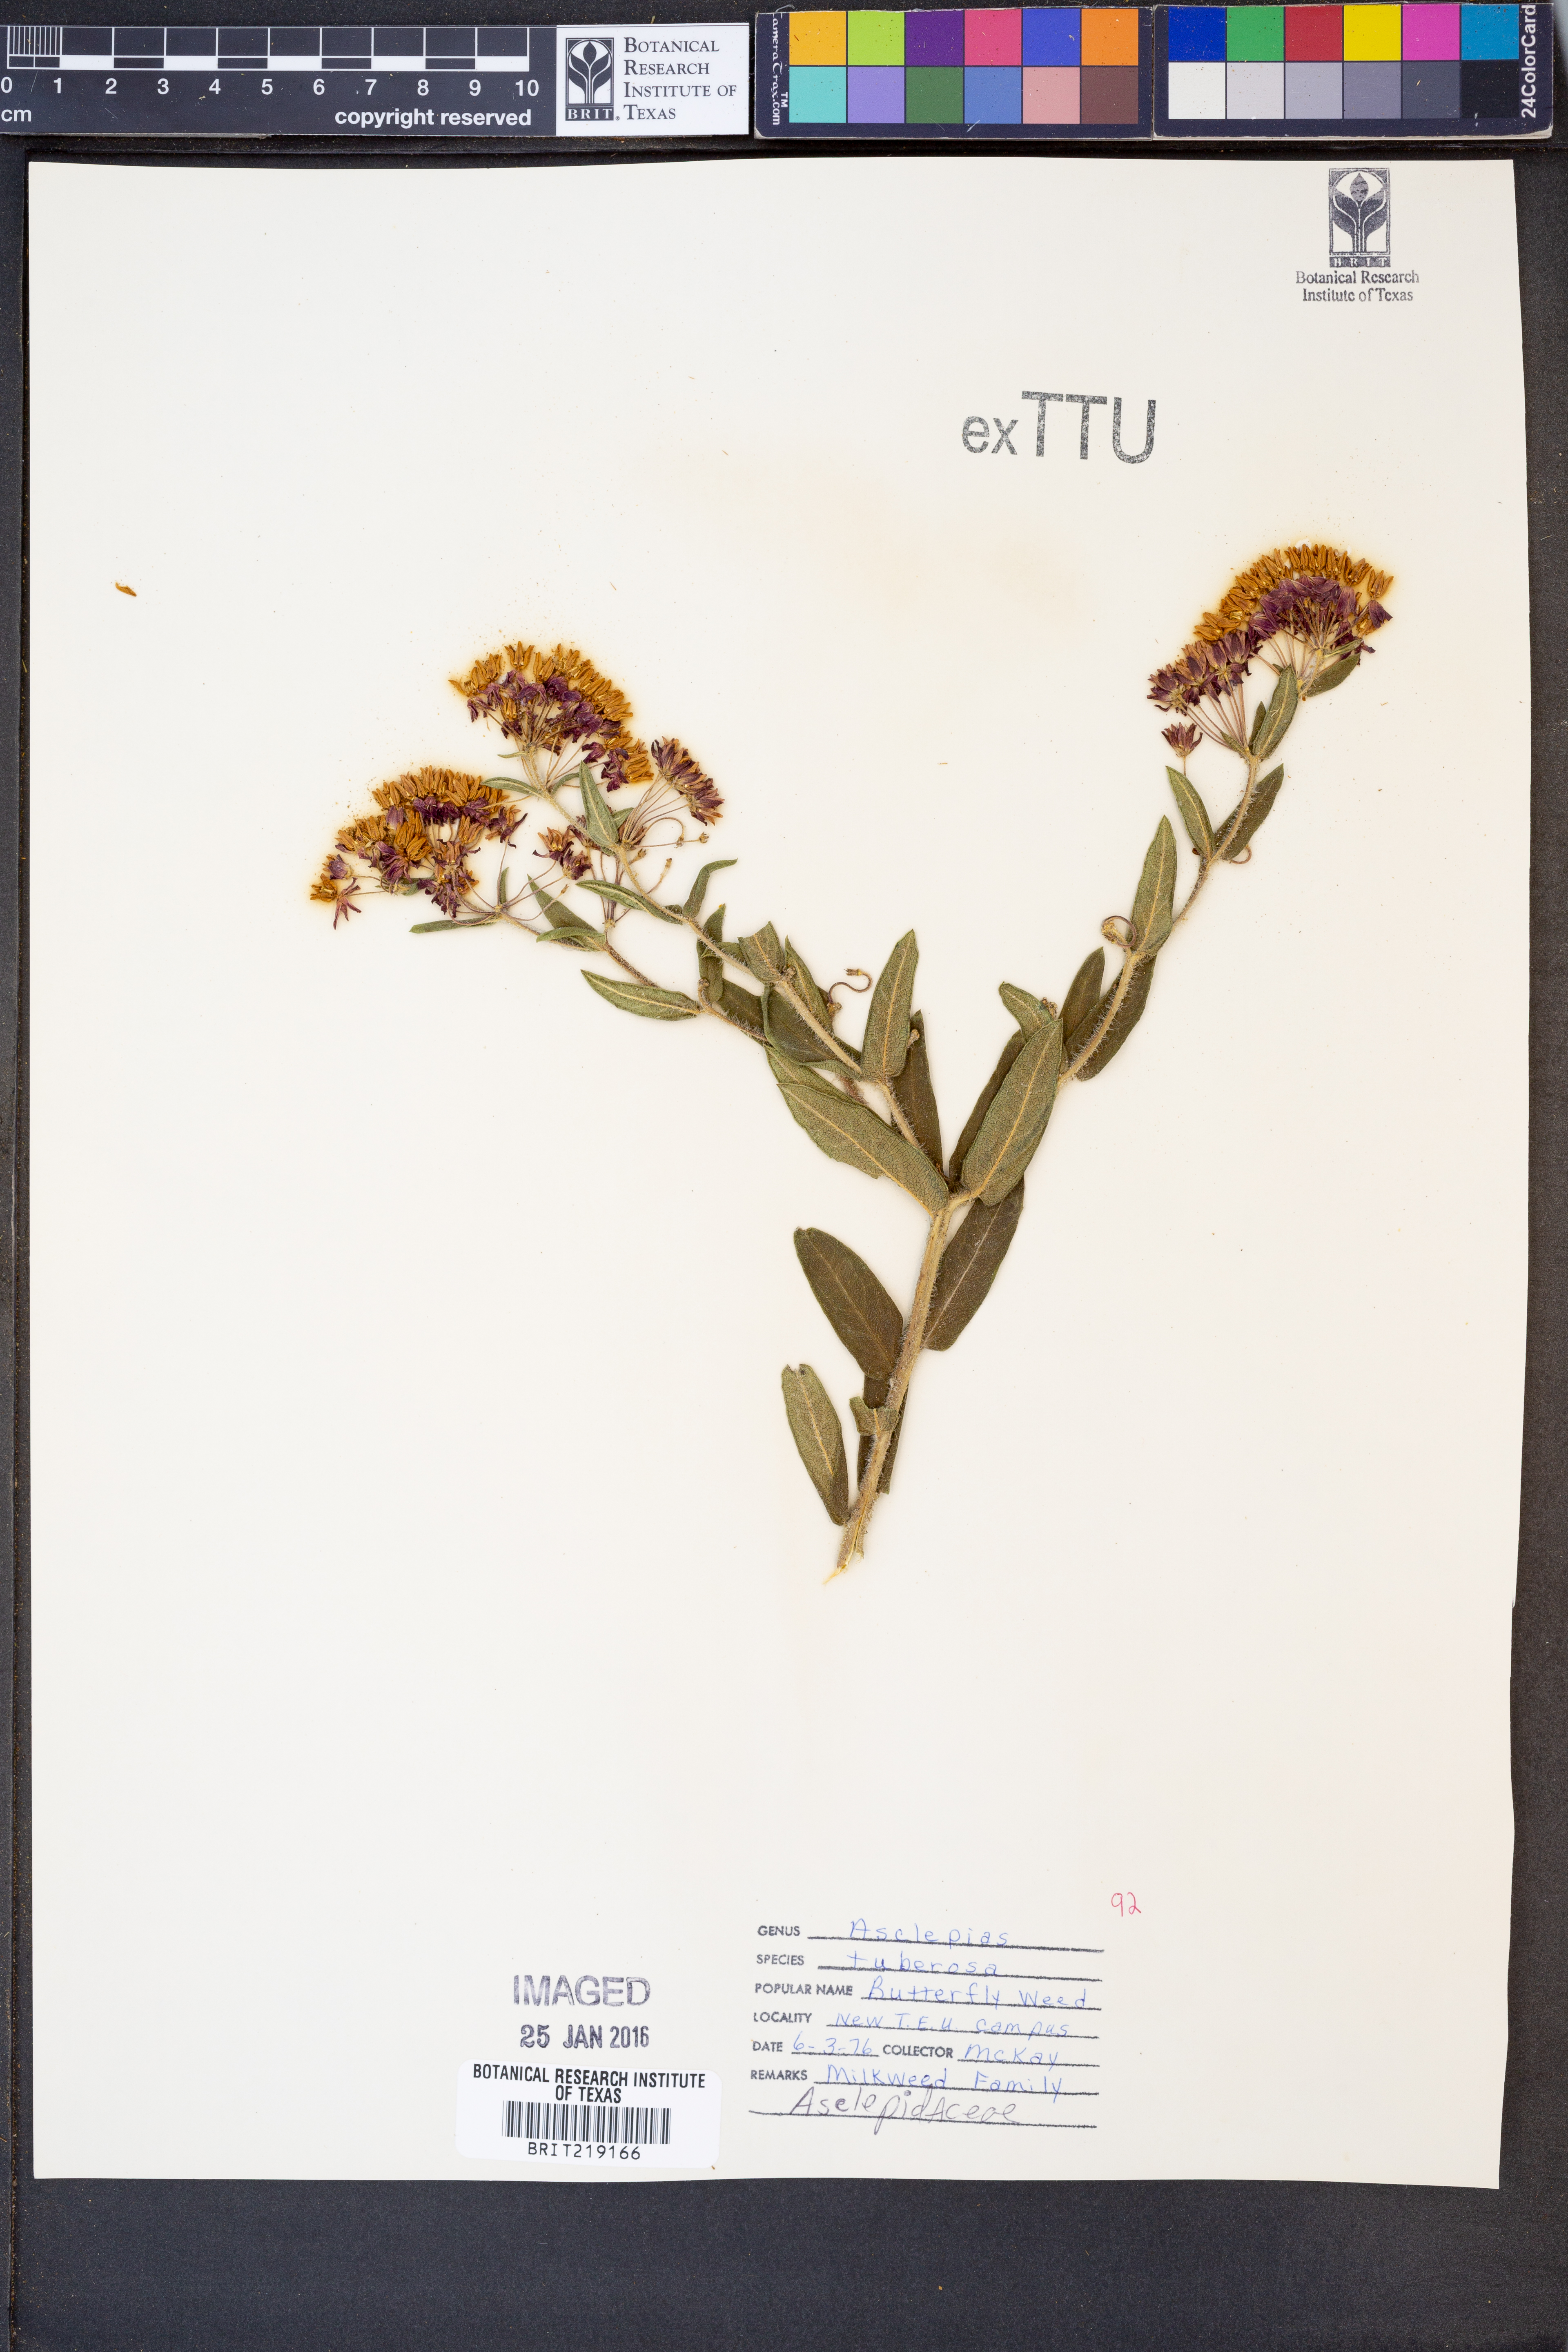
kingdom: Plantae
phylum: Tracheophyta
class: Magnoliopsida
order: Gentianales
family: Apocynaceae
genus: Asclepias
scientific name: Asclepias tuberosa
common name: Butterfly milkweed
